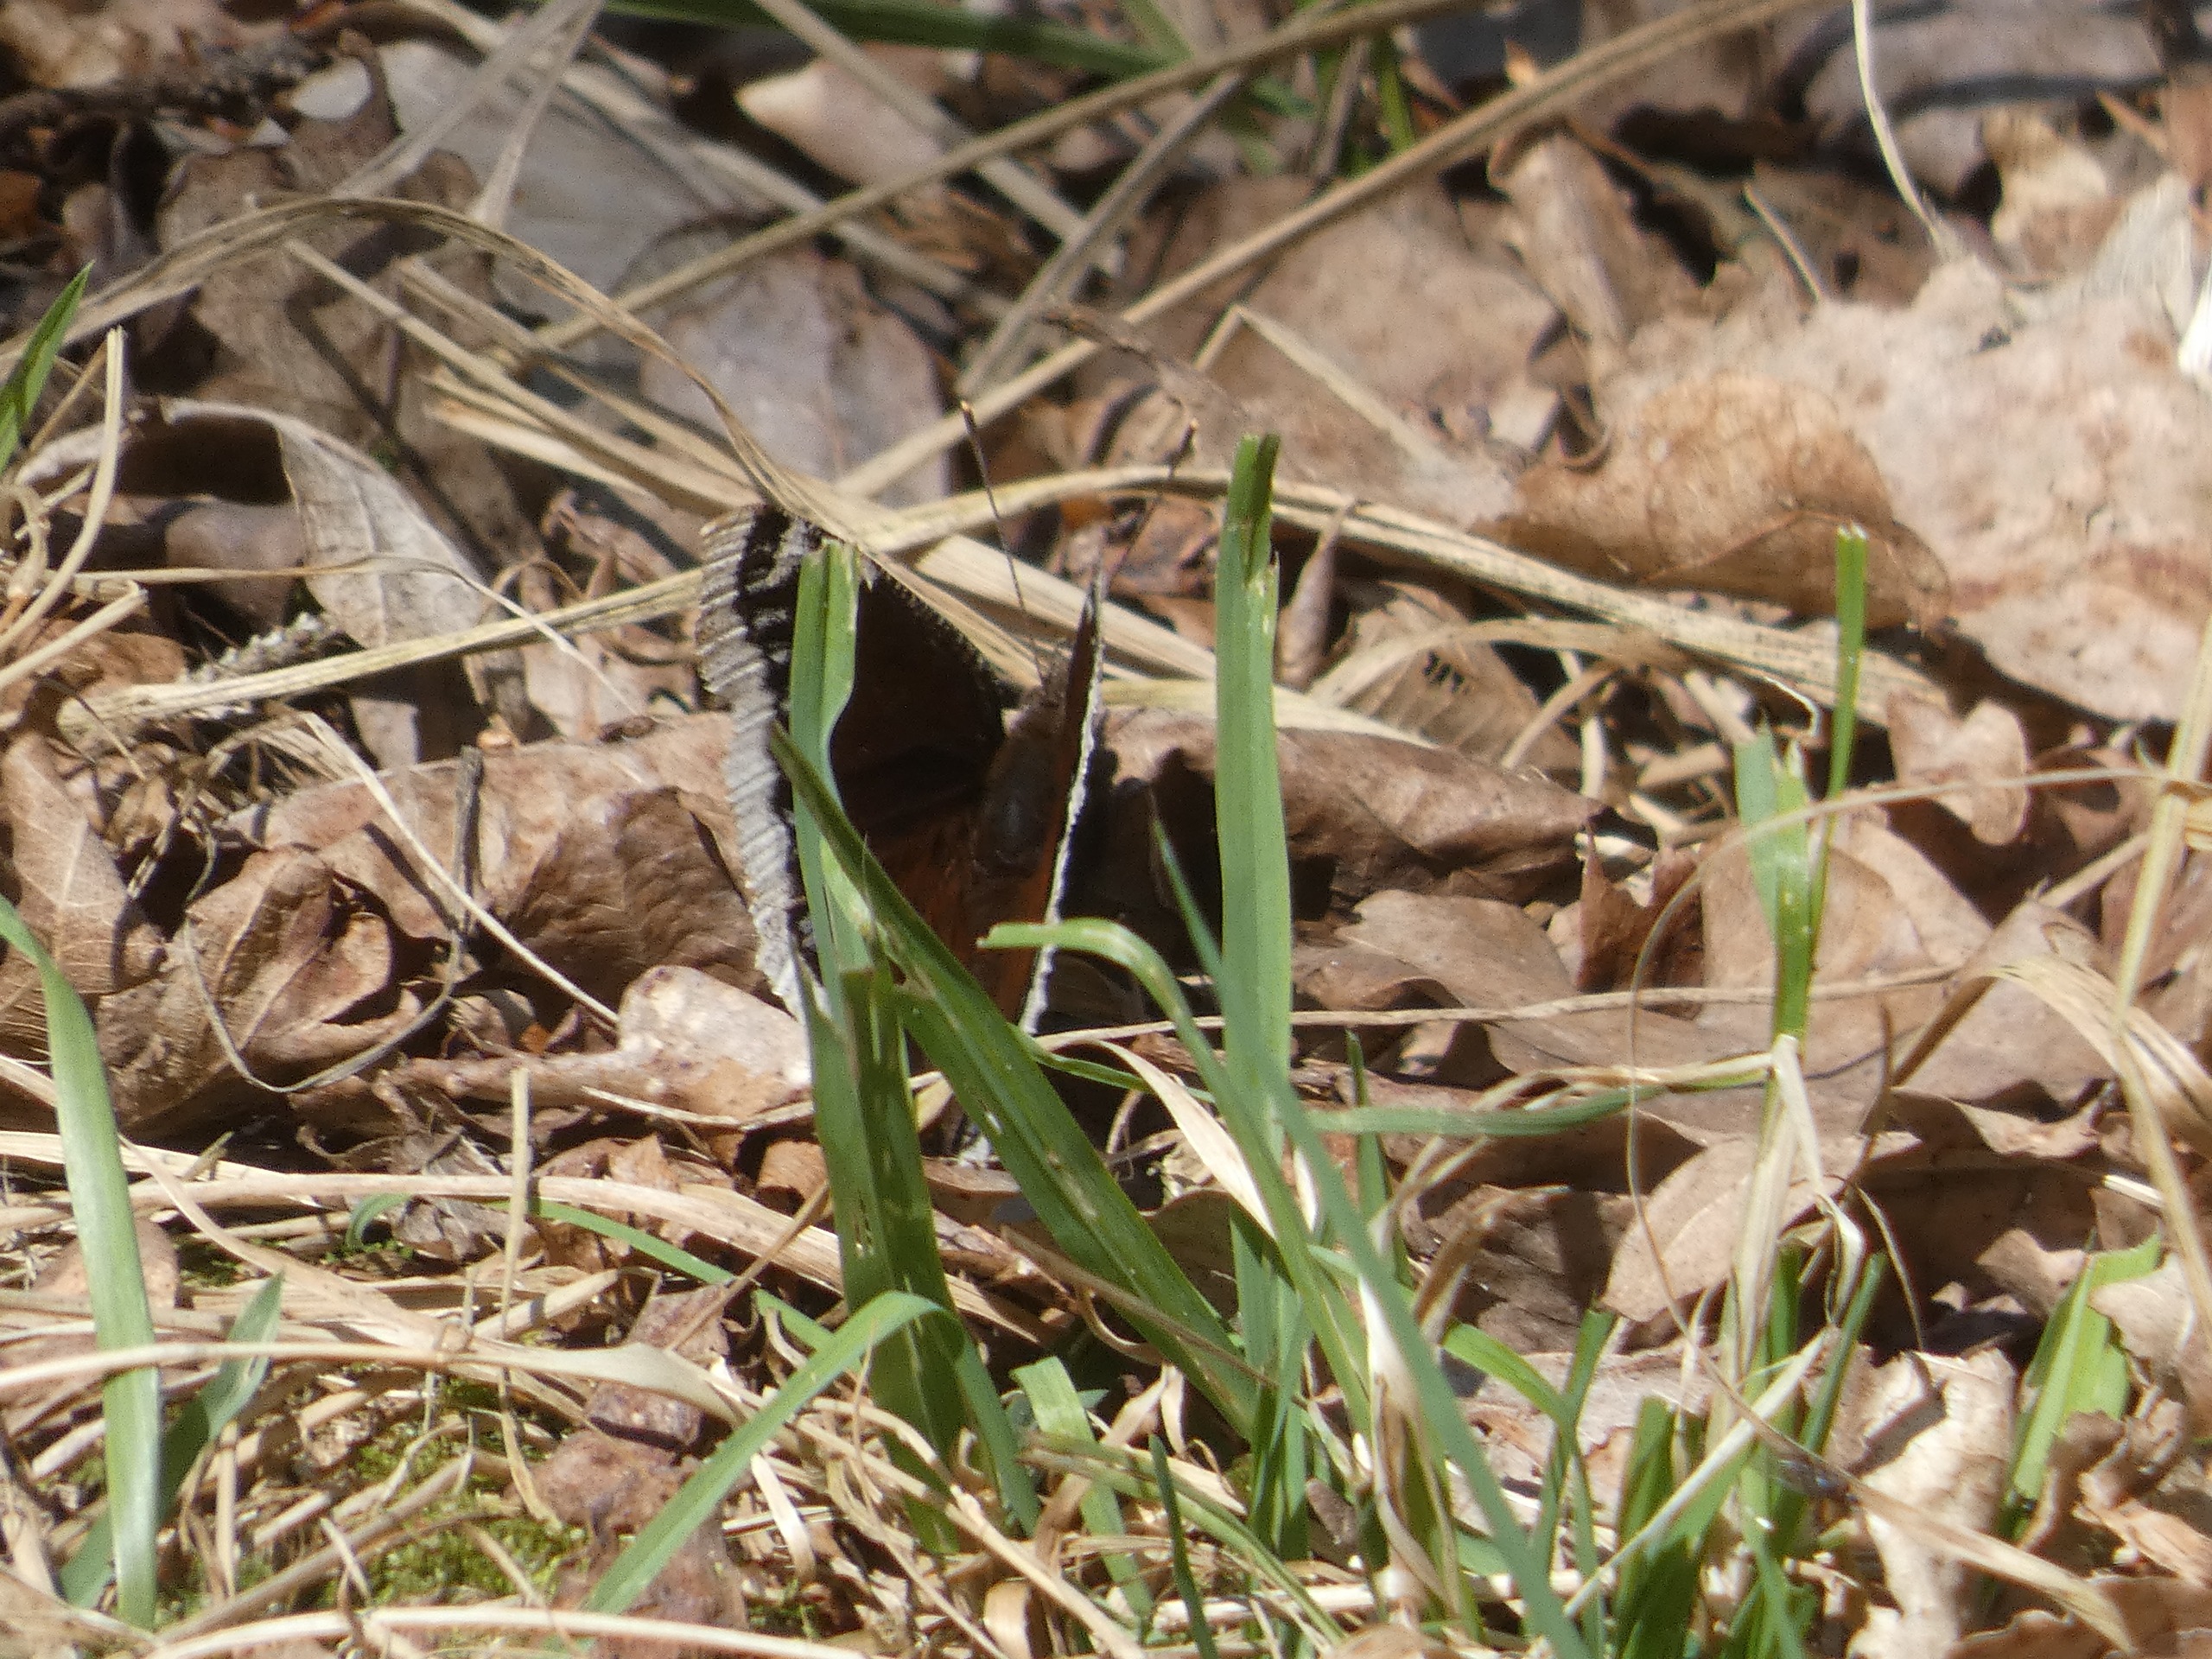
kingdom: Animalia
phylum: Arthropoda
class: Insecta
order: Lepidoptera
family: Nymphalidae
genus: Nymphalis
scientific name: Nymphalis antiopa
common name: Sørgekåbe
